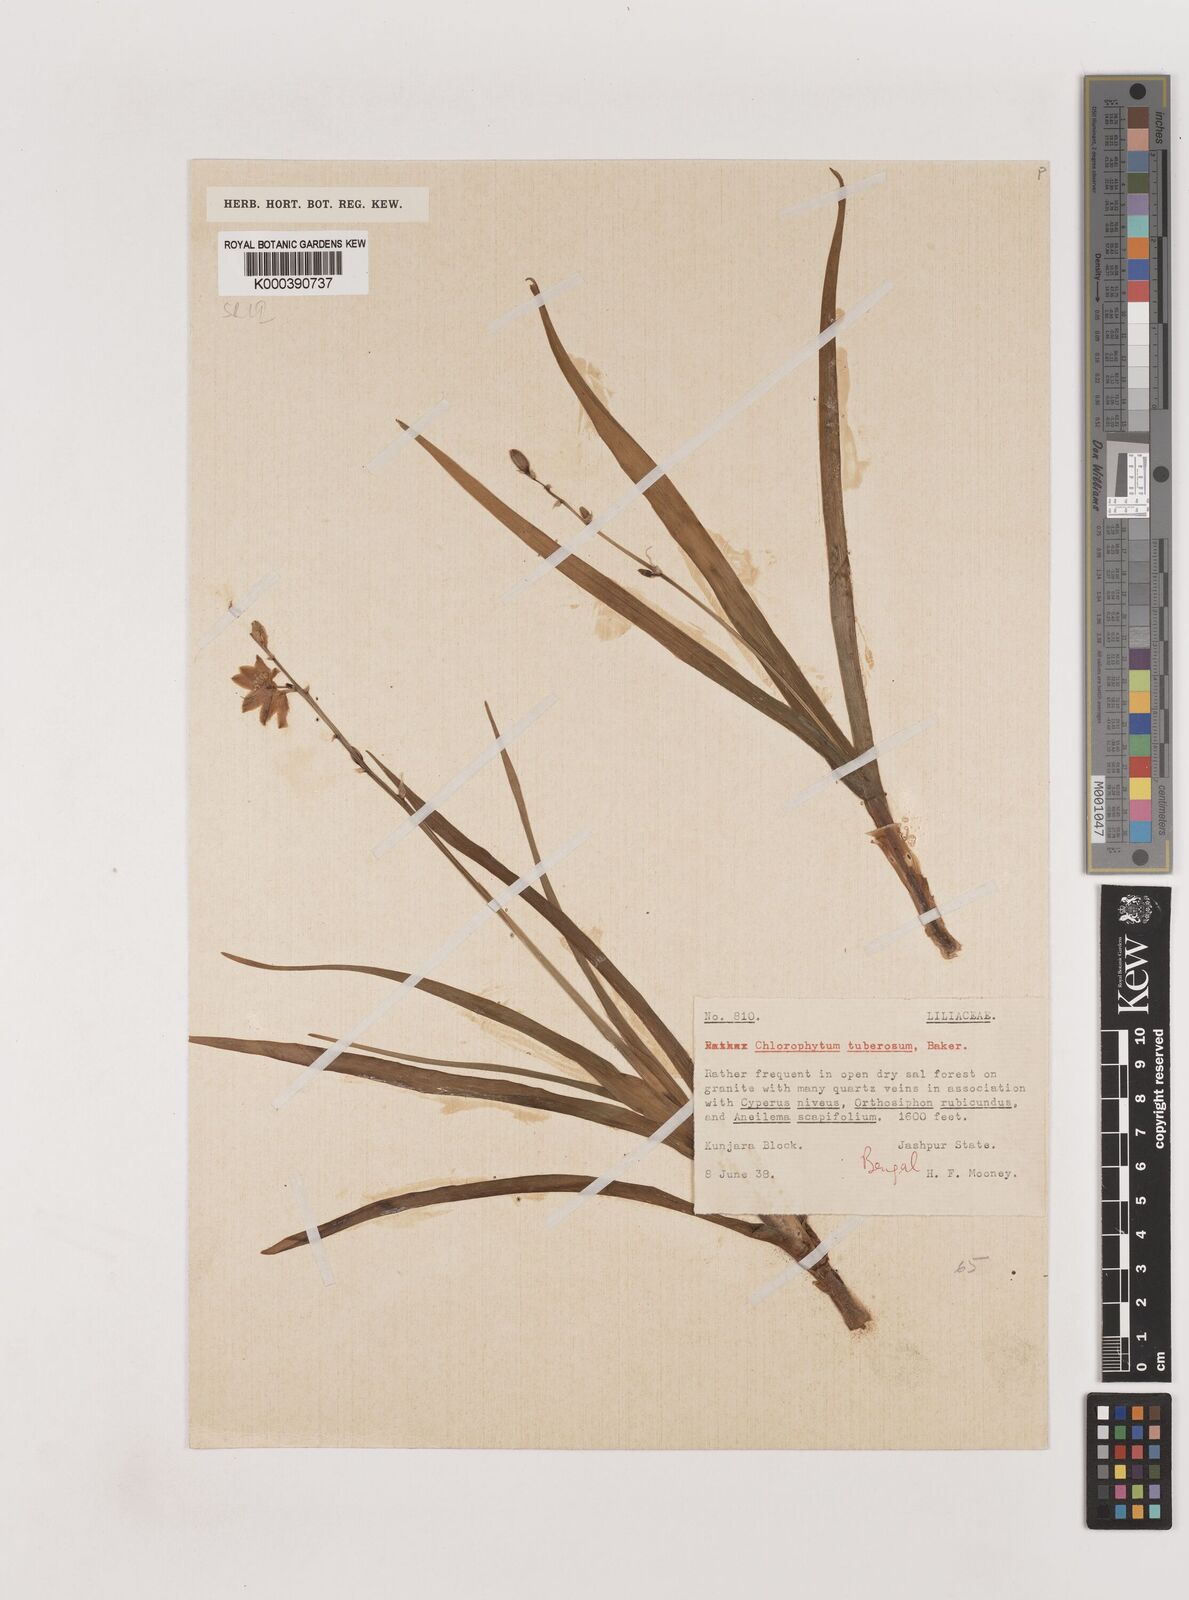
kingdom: Plantae
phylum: Tracheophyta
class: Liliopsida
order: Asparagales
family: Asparagaceae
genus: Chlorophytum
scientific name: Chlorophytum tuberosum
